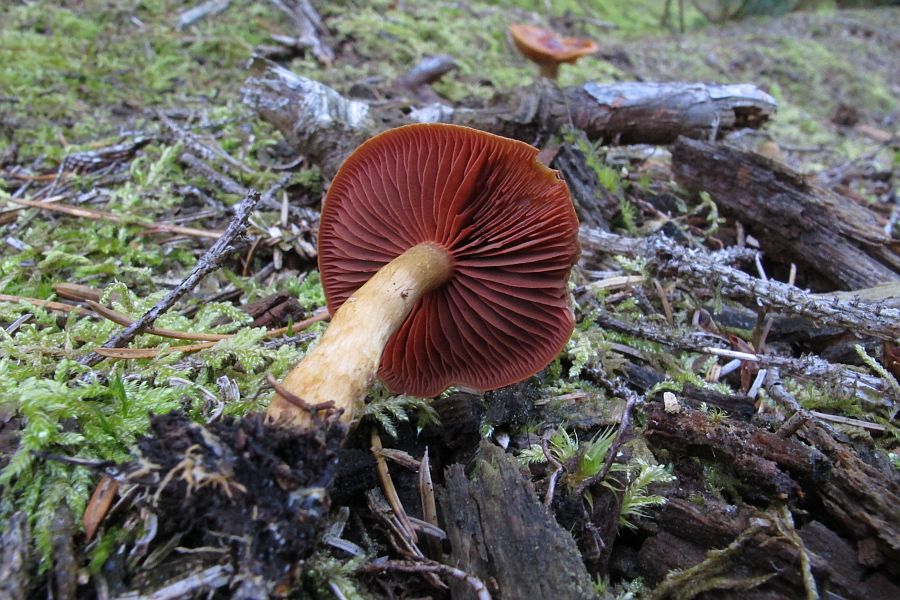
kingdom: Fungi
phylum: Basidiomycota
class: Agaricomycetes
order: Agaricales
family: Cortinariaceae
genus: Cortinarius
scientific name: Cortinarius
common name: cinnoberbladet slørhat
